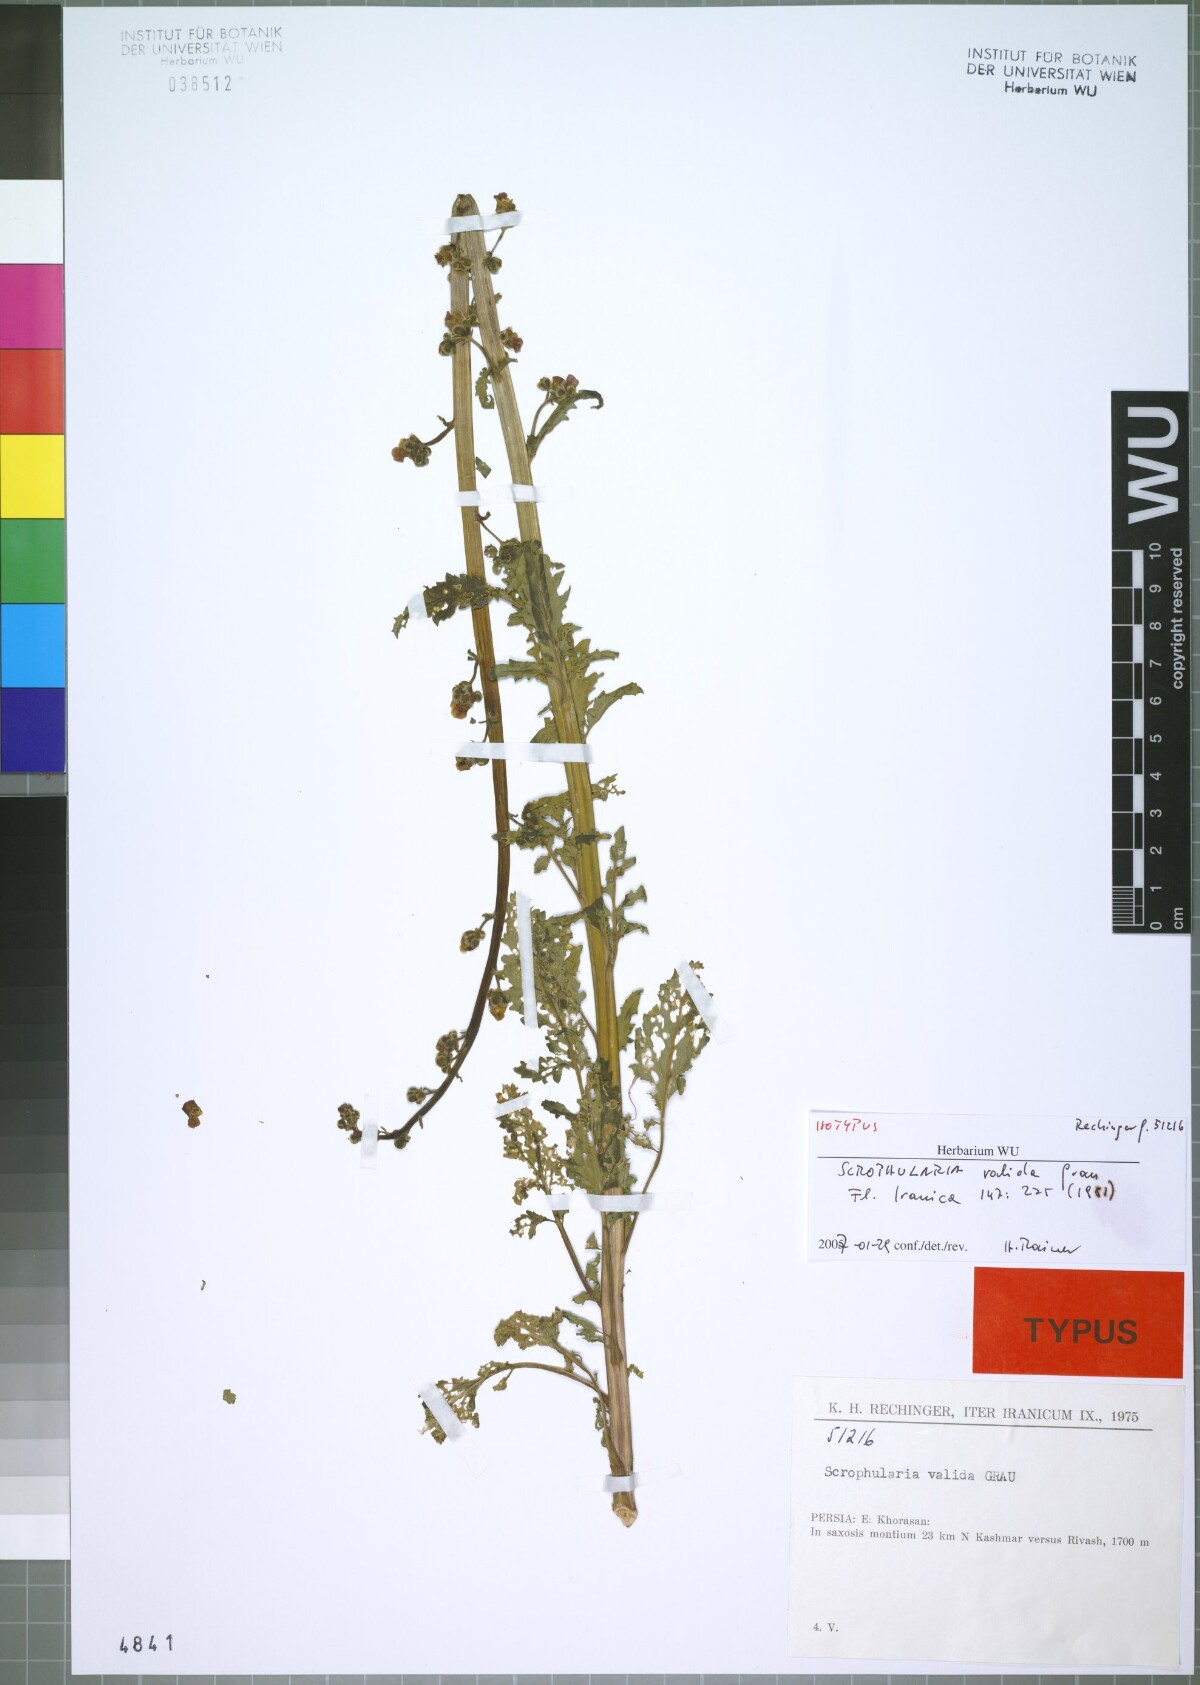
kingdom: Plantae
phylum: Tracheophyta
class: Magnoliopsida
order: Lamiales
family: Scrophulariaceae
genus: Scrophularia
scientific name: Scrophularia valida
